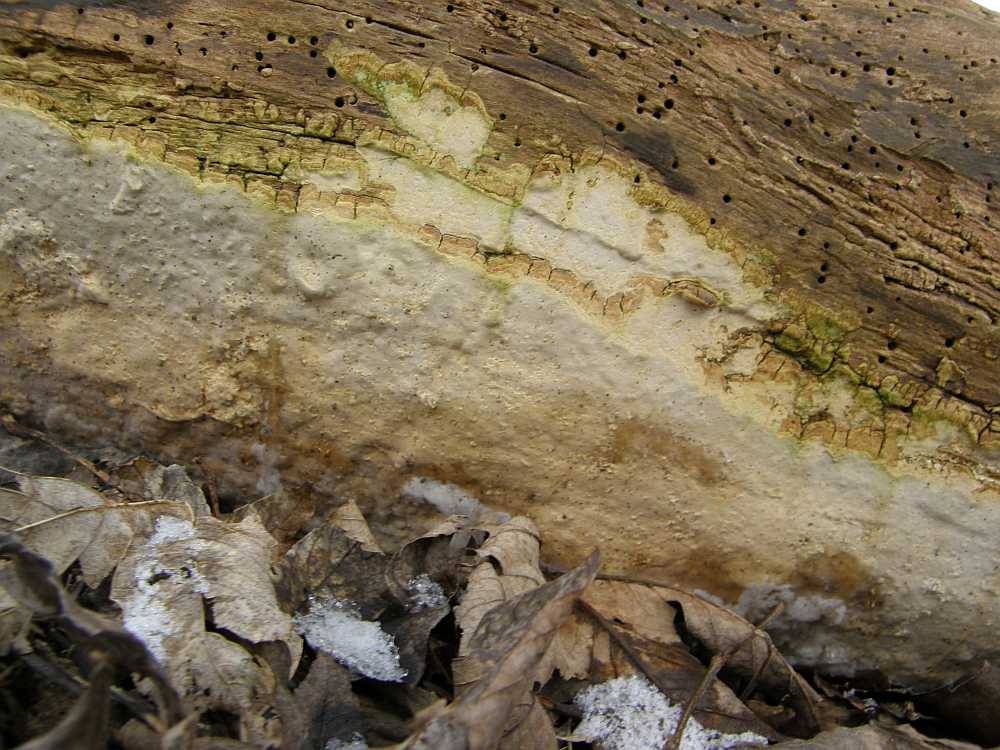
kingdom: Fungi
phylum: Basidiomycota
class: Agaricomycetes
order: Russulales
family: Peniophoraceae
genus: Scytinostroma
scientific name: Scytinostroma hemidichophyticum
